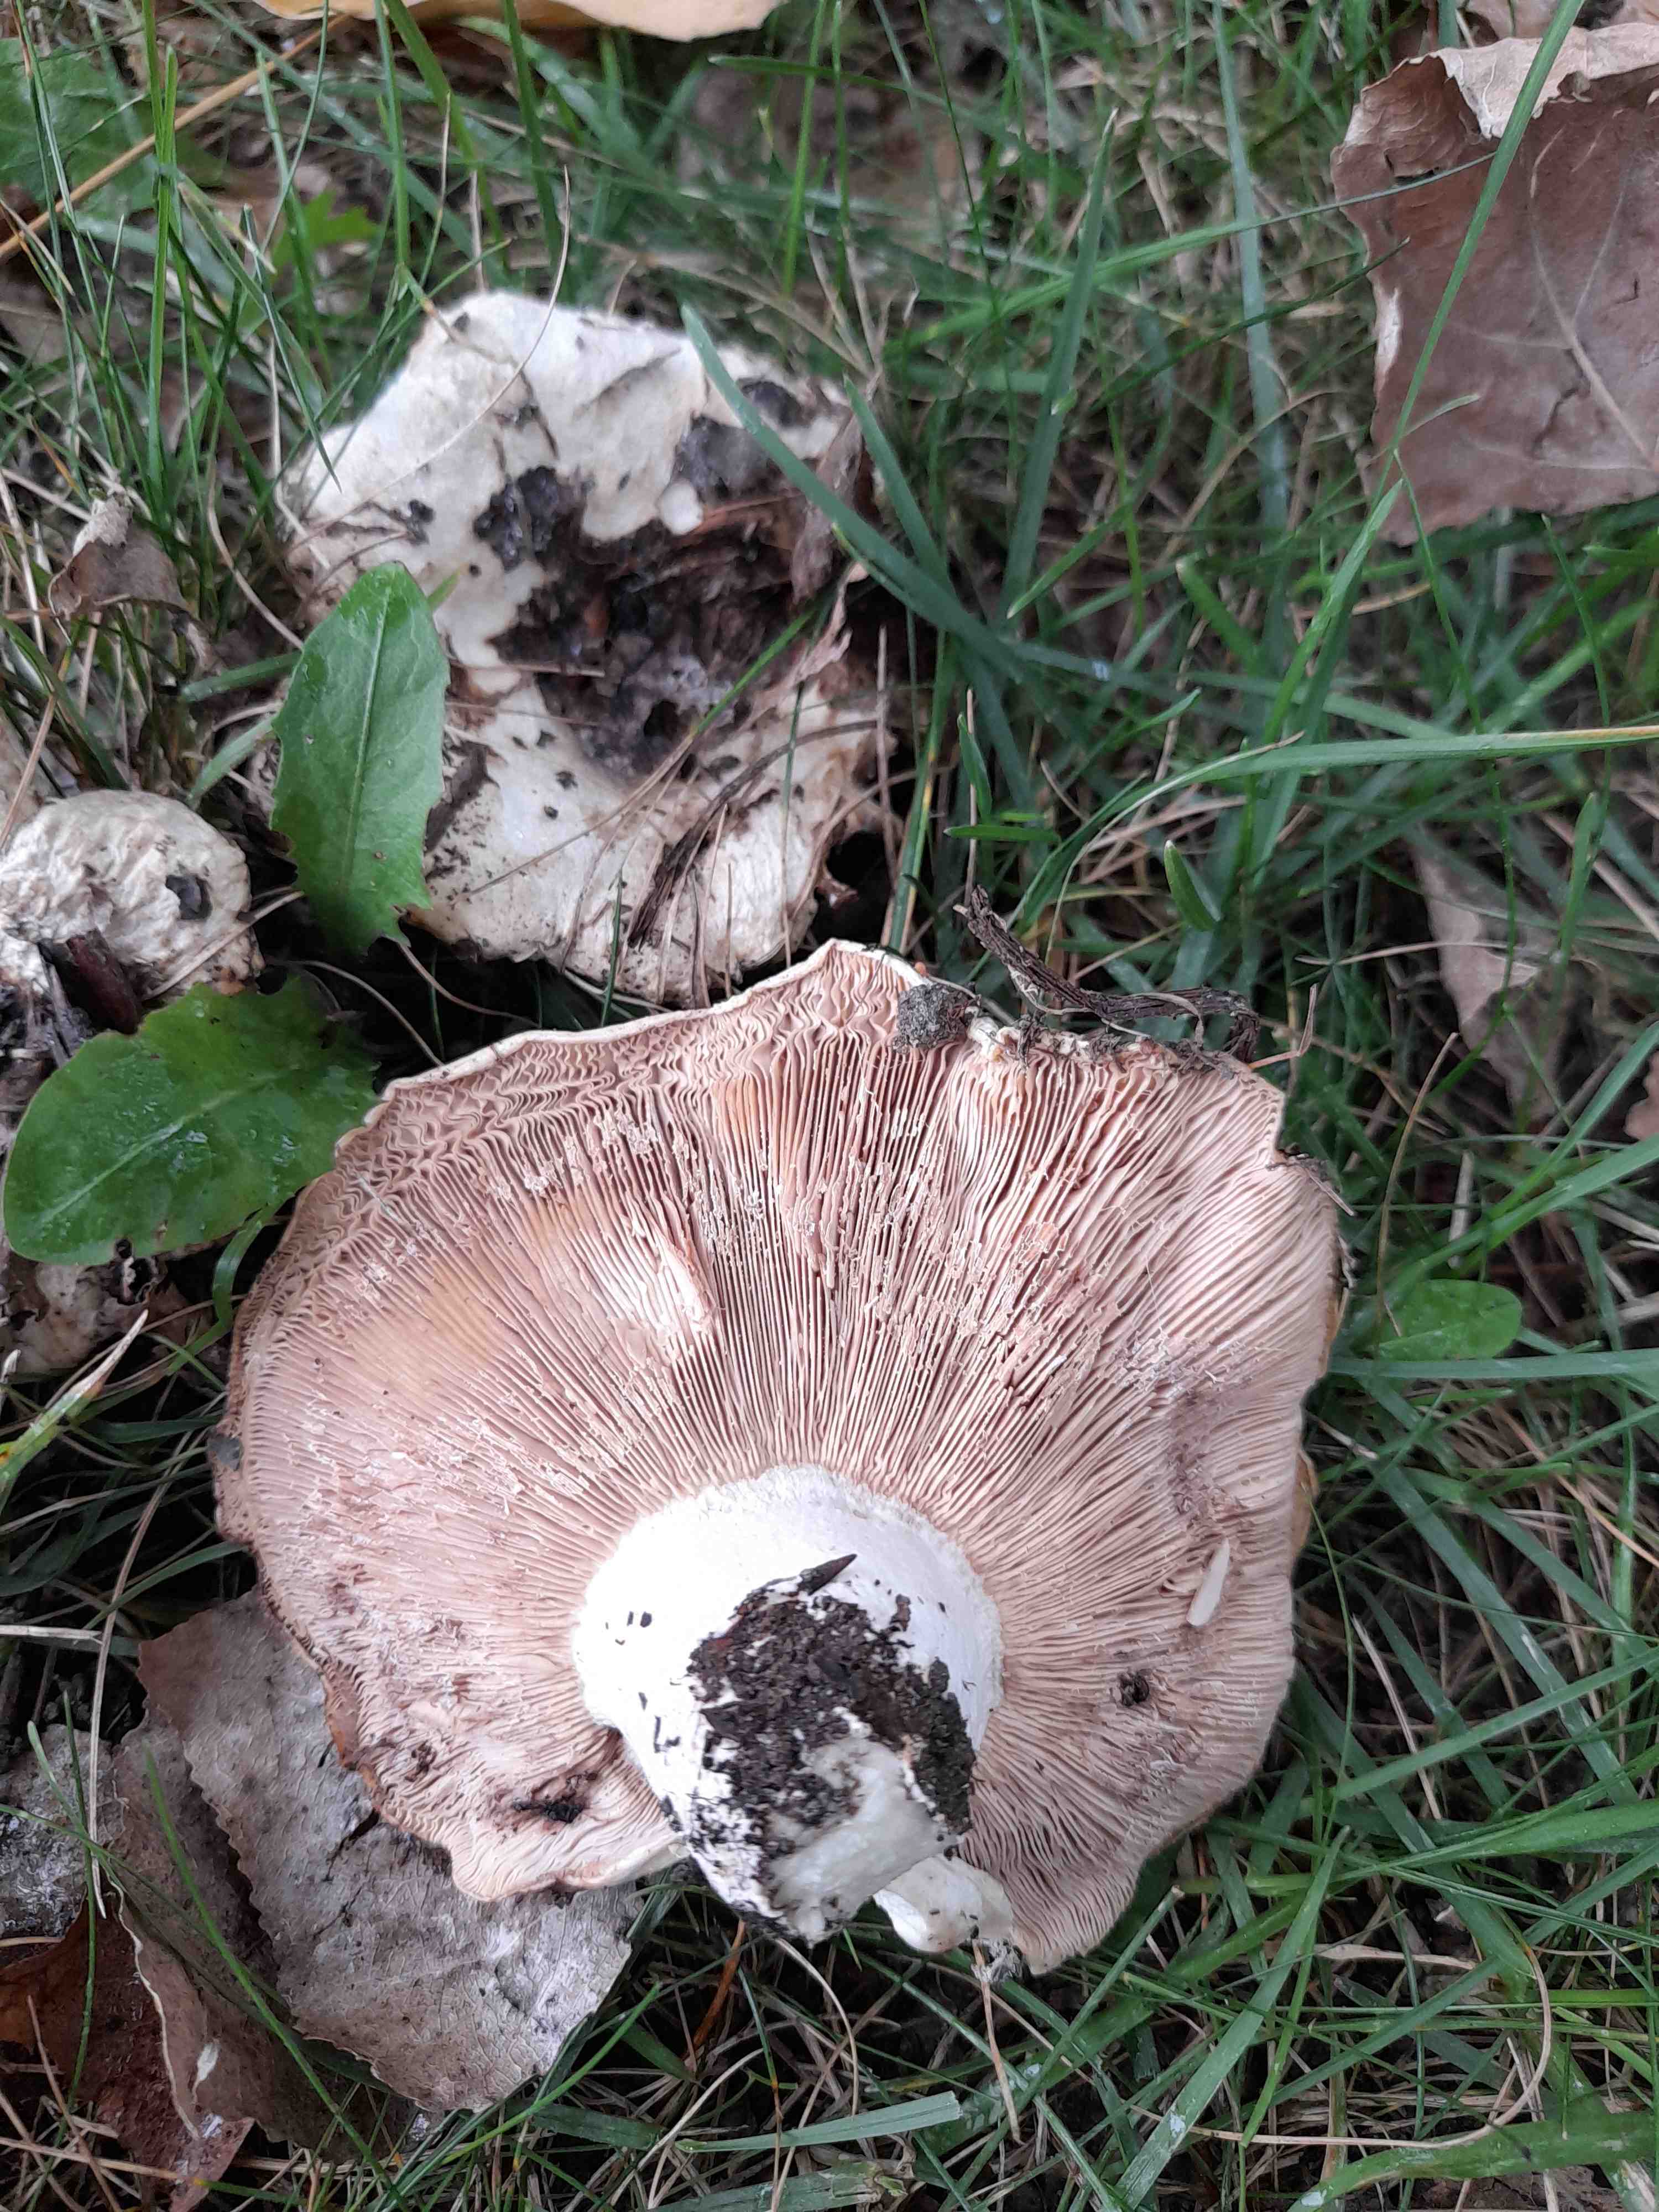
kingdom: Fungi
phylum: Basidiomycota
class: Agaricomycetes
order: Russulales
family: Russulaceae
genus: Lactarius
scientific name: Lactarius controversus
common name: rosabladet mælkehat
